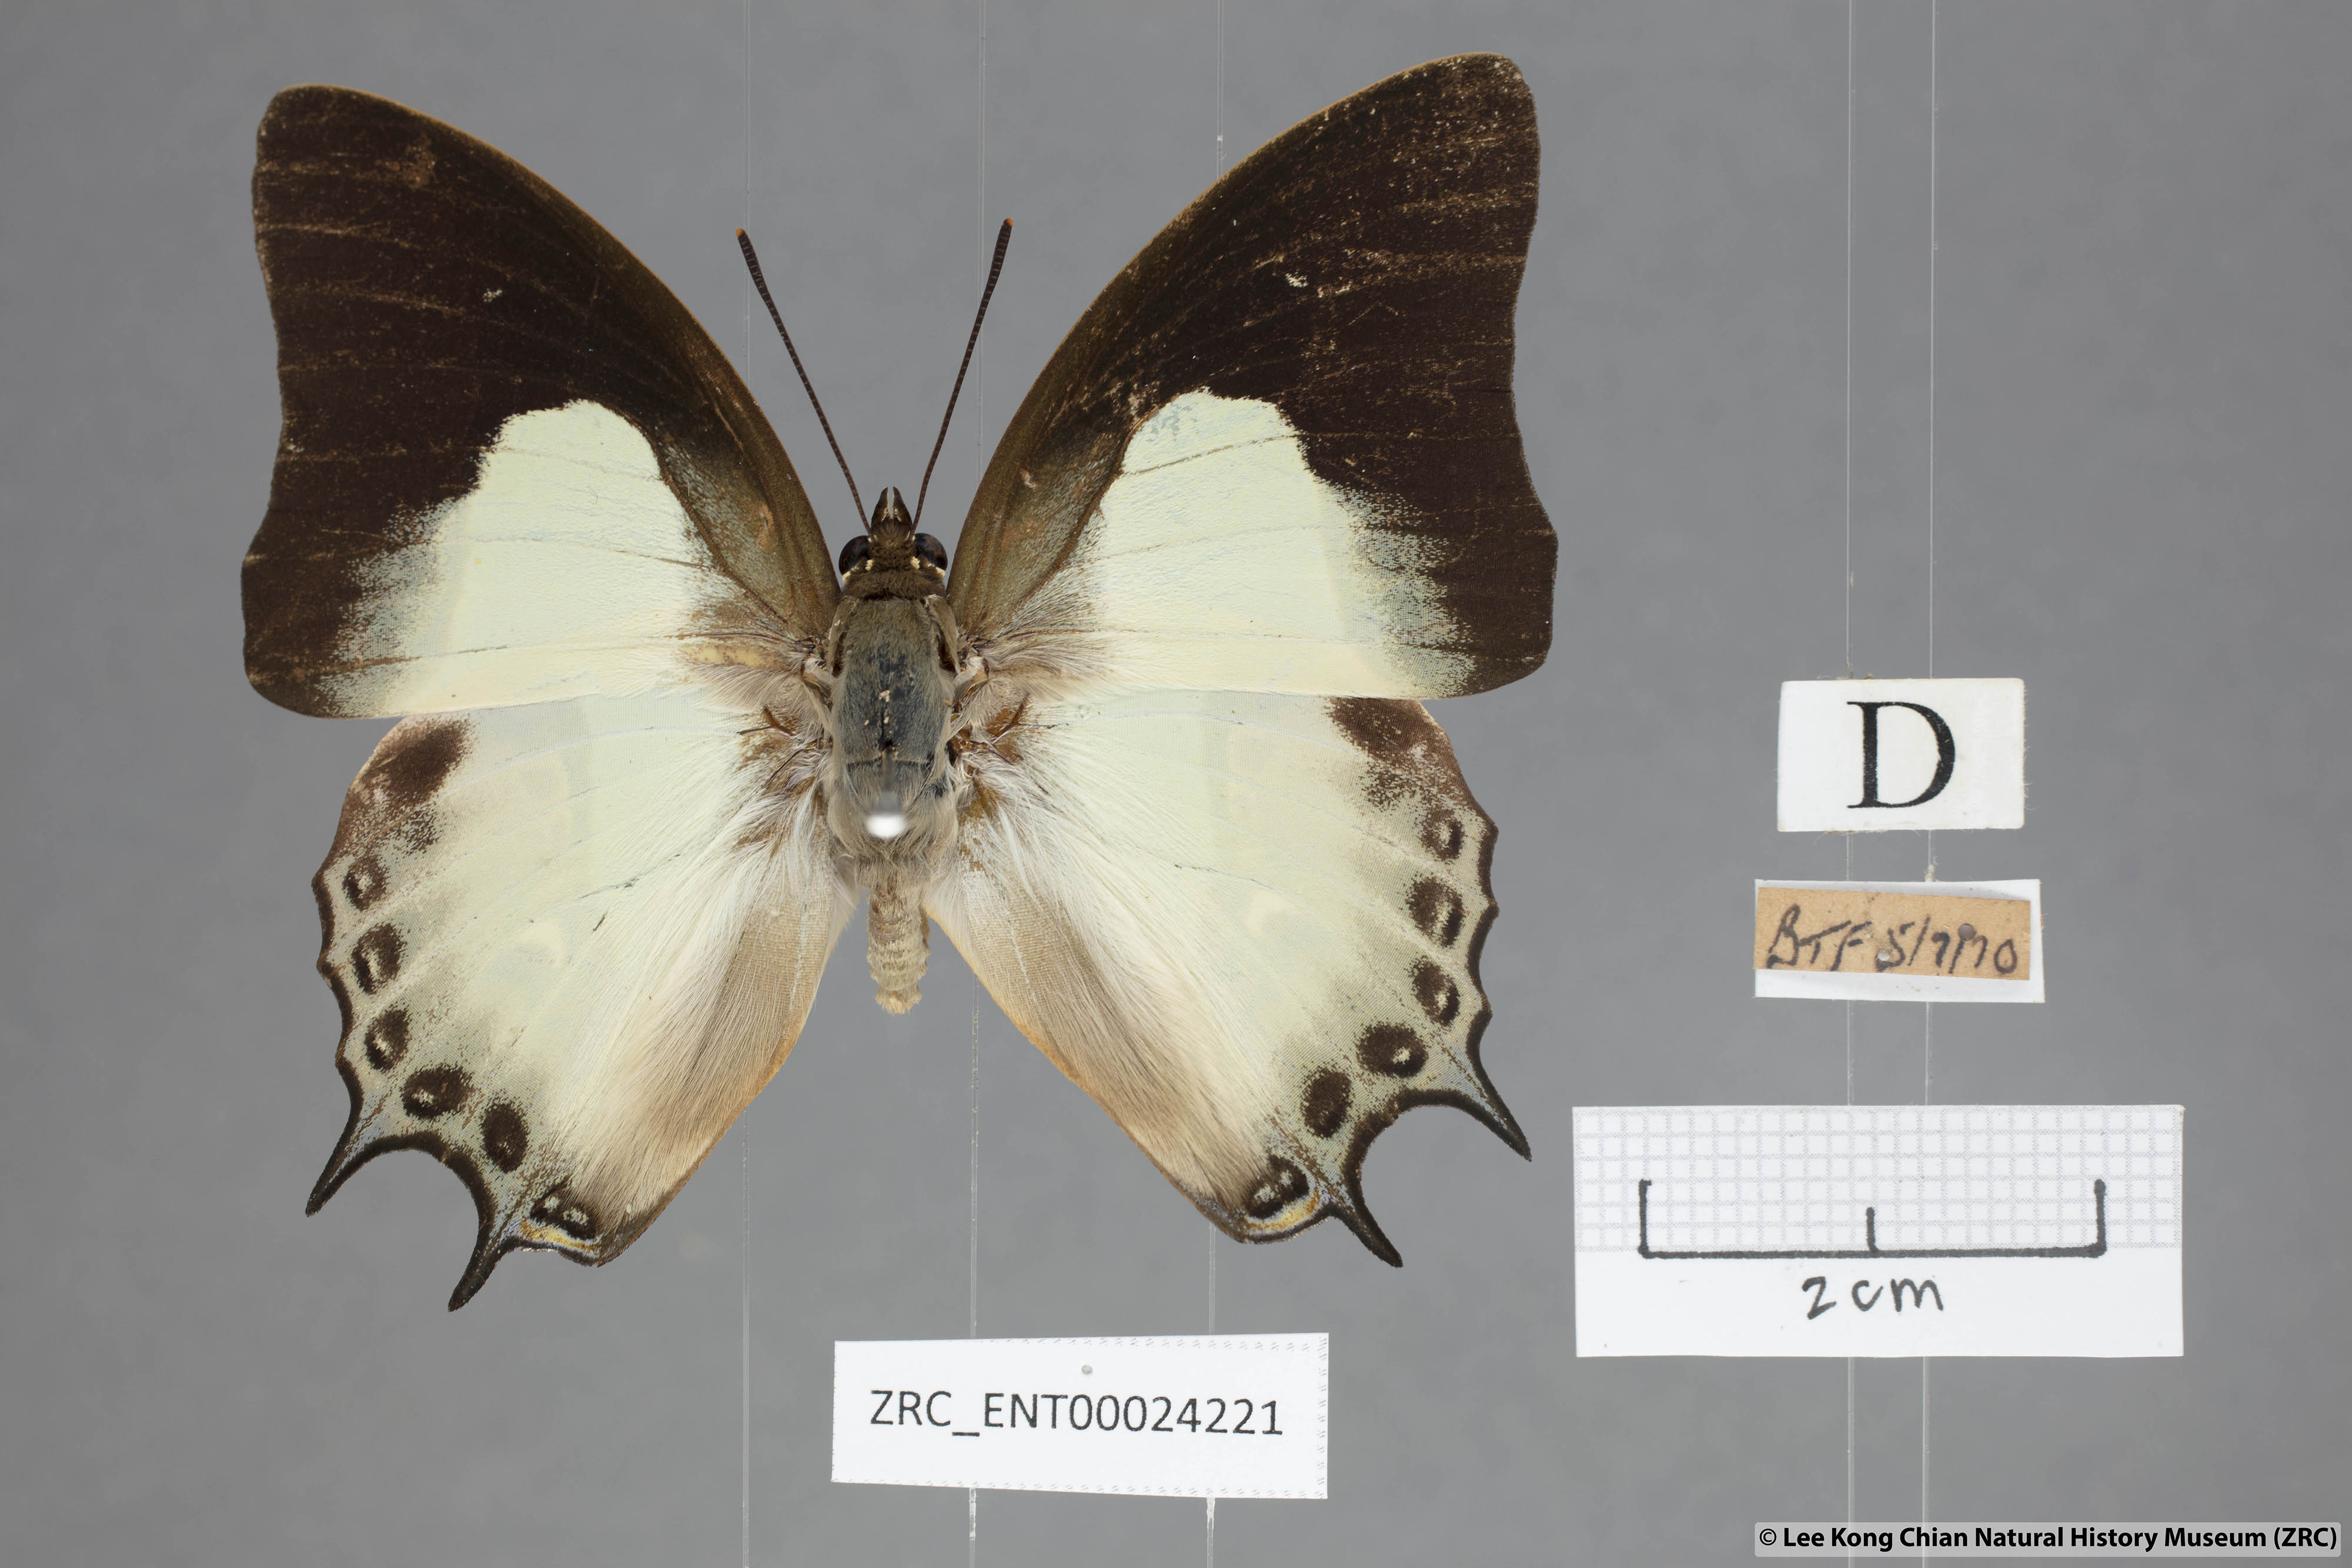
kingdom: Animalia
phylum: Arthropoda
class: Insecta
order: Lepidoptera
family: Nymphalidae
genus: Polyura
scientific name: Polyura hebe
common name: Plain nawab
